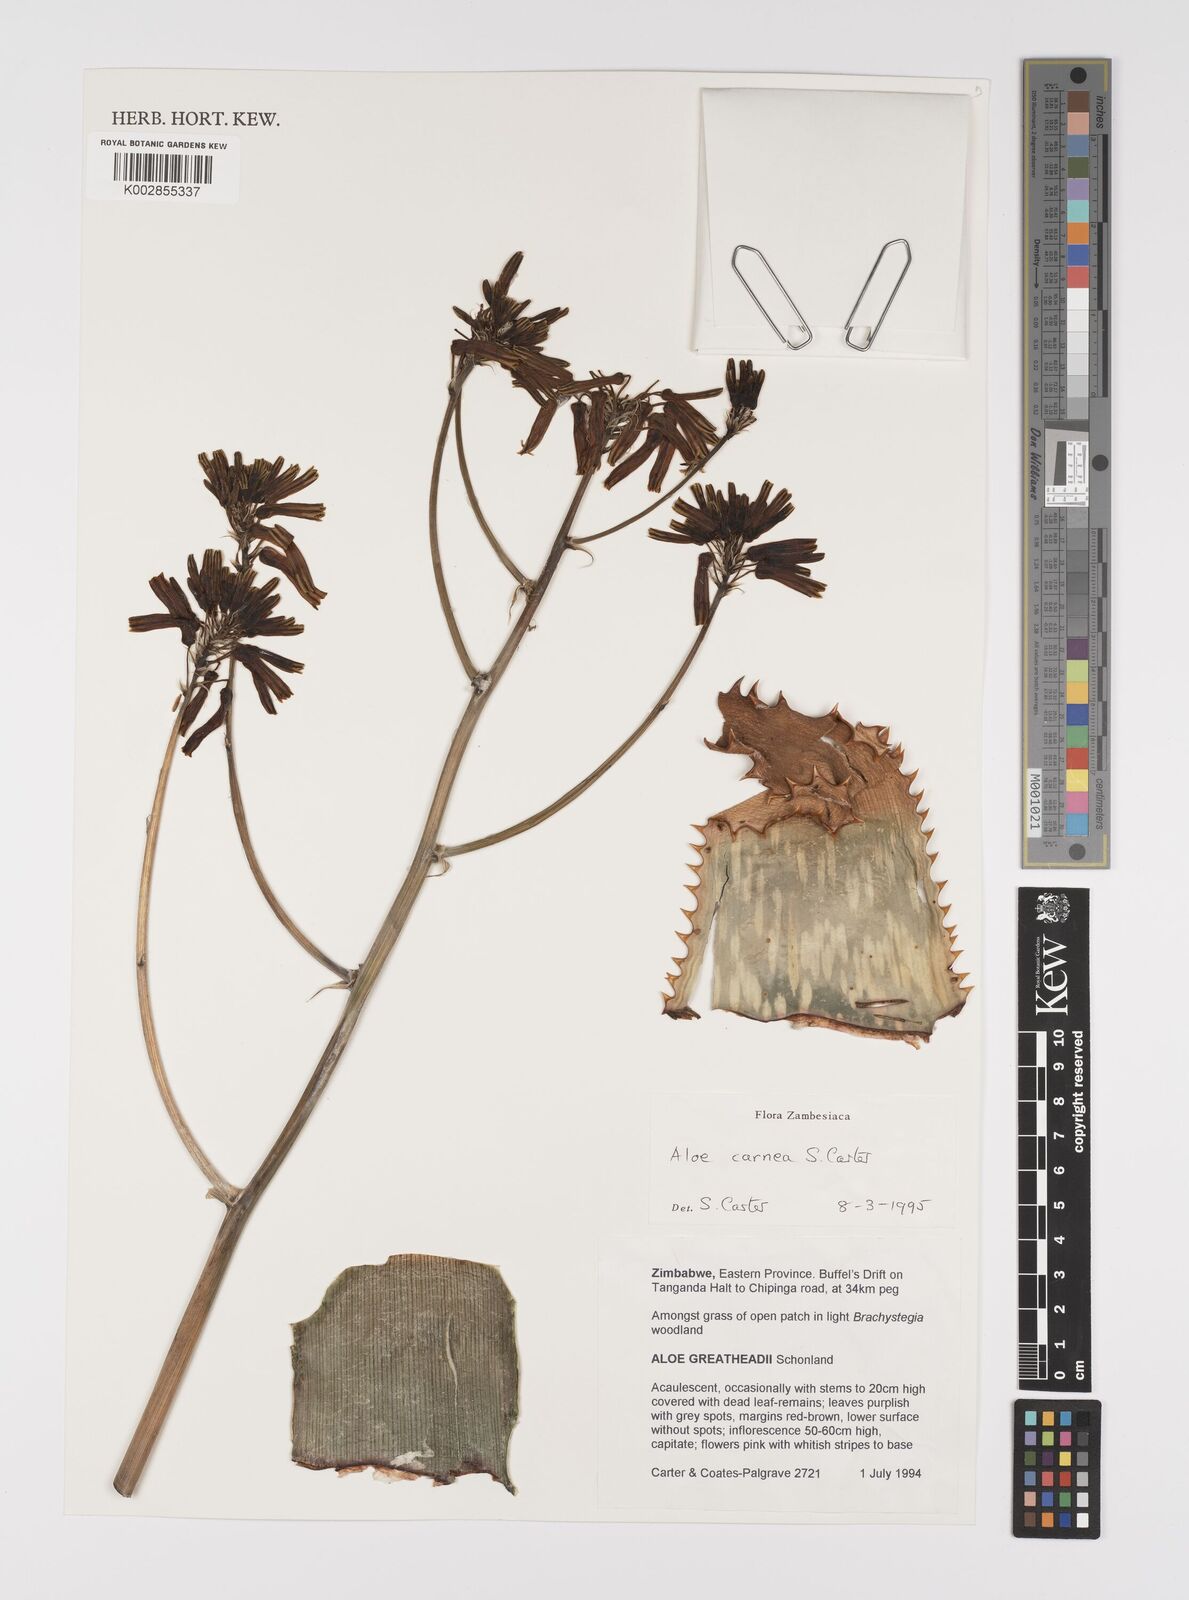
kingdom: Plantae
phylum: Tracheophyta
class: Liliopsida
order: Asparagales
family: Asphodelaceae
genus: Aloe
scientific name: Aloe carnea
